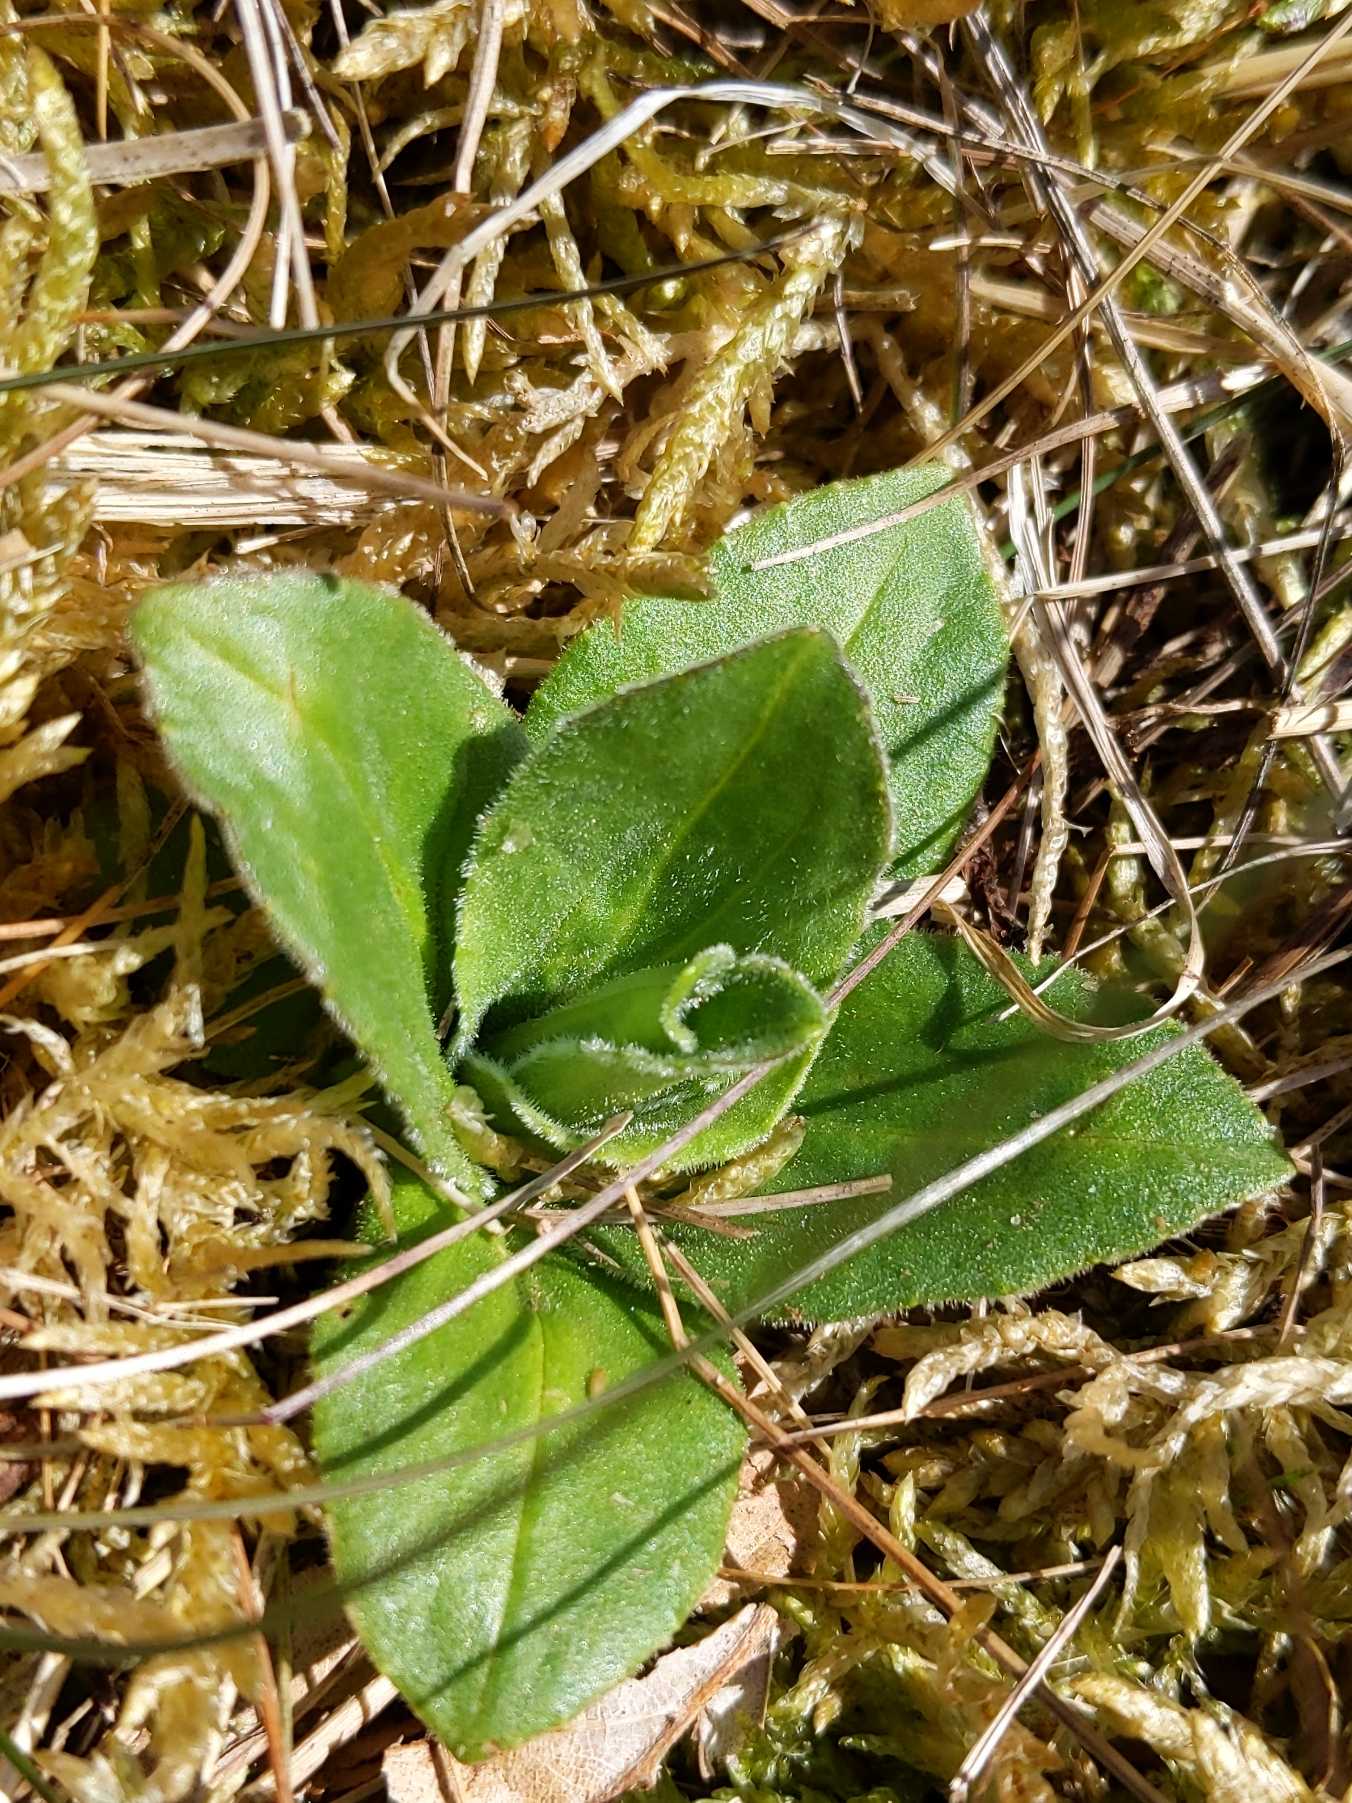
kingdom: Plantae
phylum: Tracheophyta
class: Magnoliopsida
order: Asterales
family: Asteraceae
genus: Arnica
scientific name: Arnica montana
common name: Guldblomme
